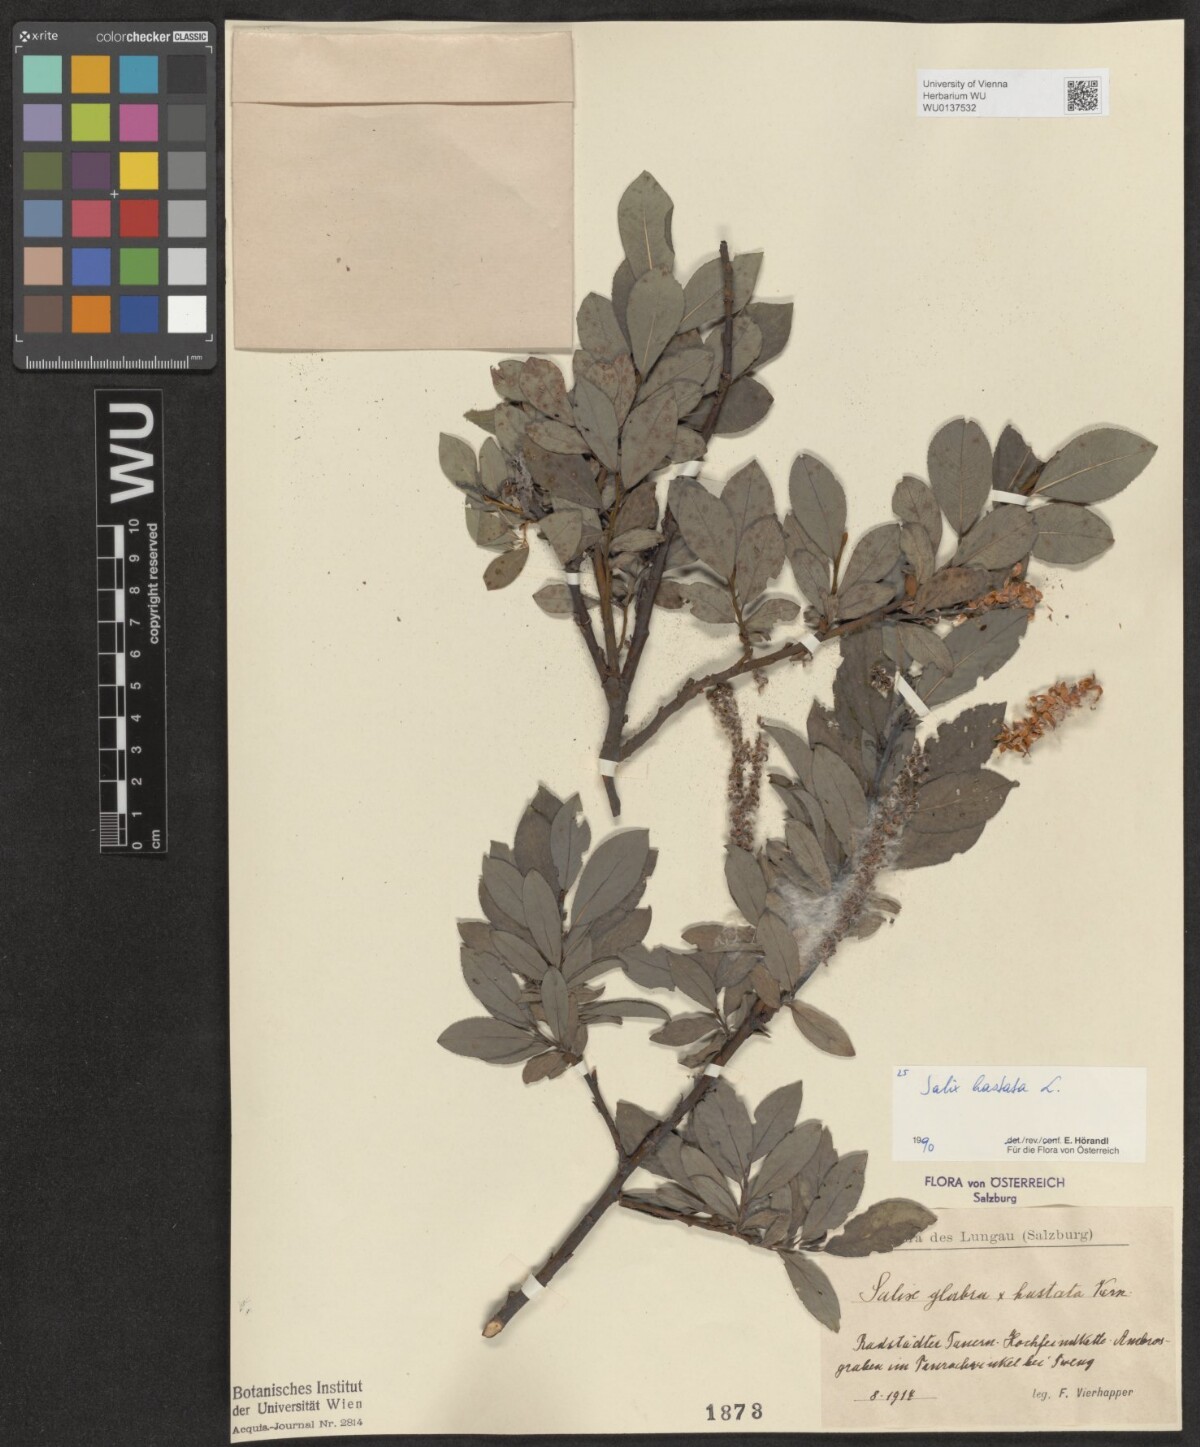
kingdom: Plantae
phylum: Tracheophyta
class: Magnoliopsida
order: Malpighiales
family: Salicaceae
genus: Salix
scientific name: Salix hastata
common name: Halberd willow
